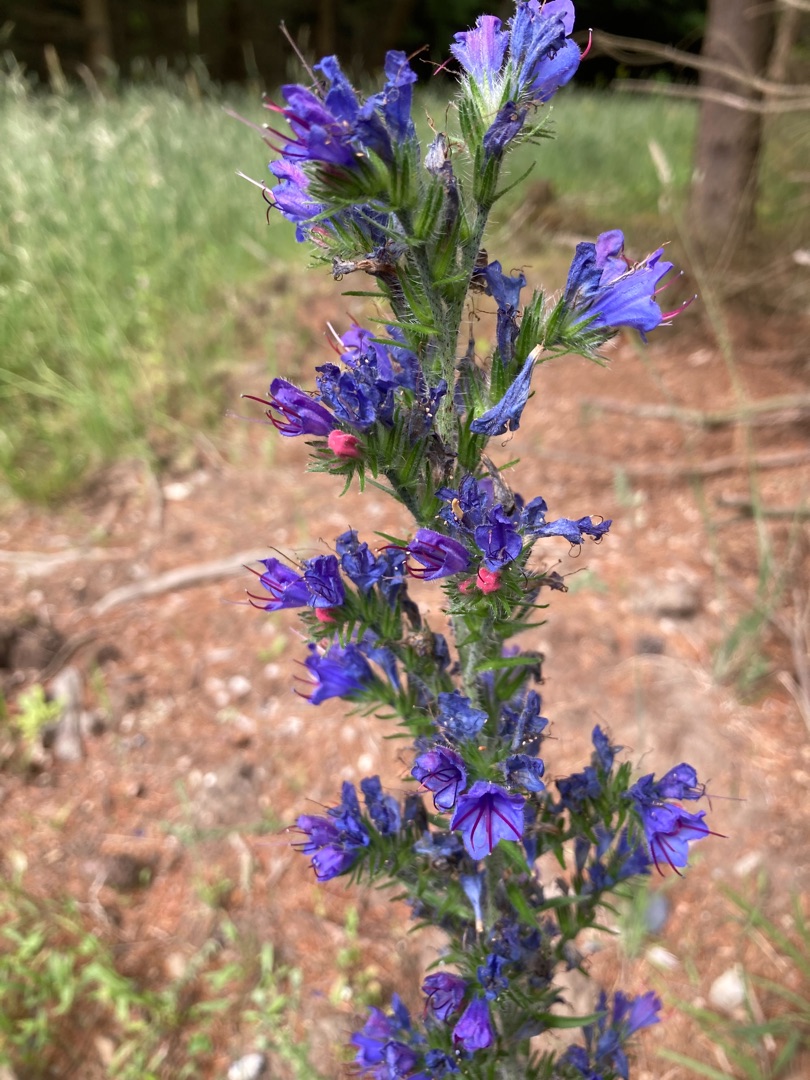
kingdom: Plantae
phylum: Tracheophyta
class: Magnoliopsida
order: Boraginales
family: Boraginaceae
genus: Echium
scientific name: Echium vulgare
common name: Slangehoved
